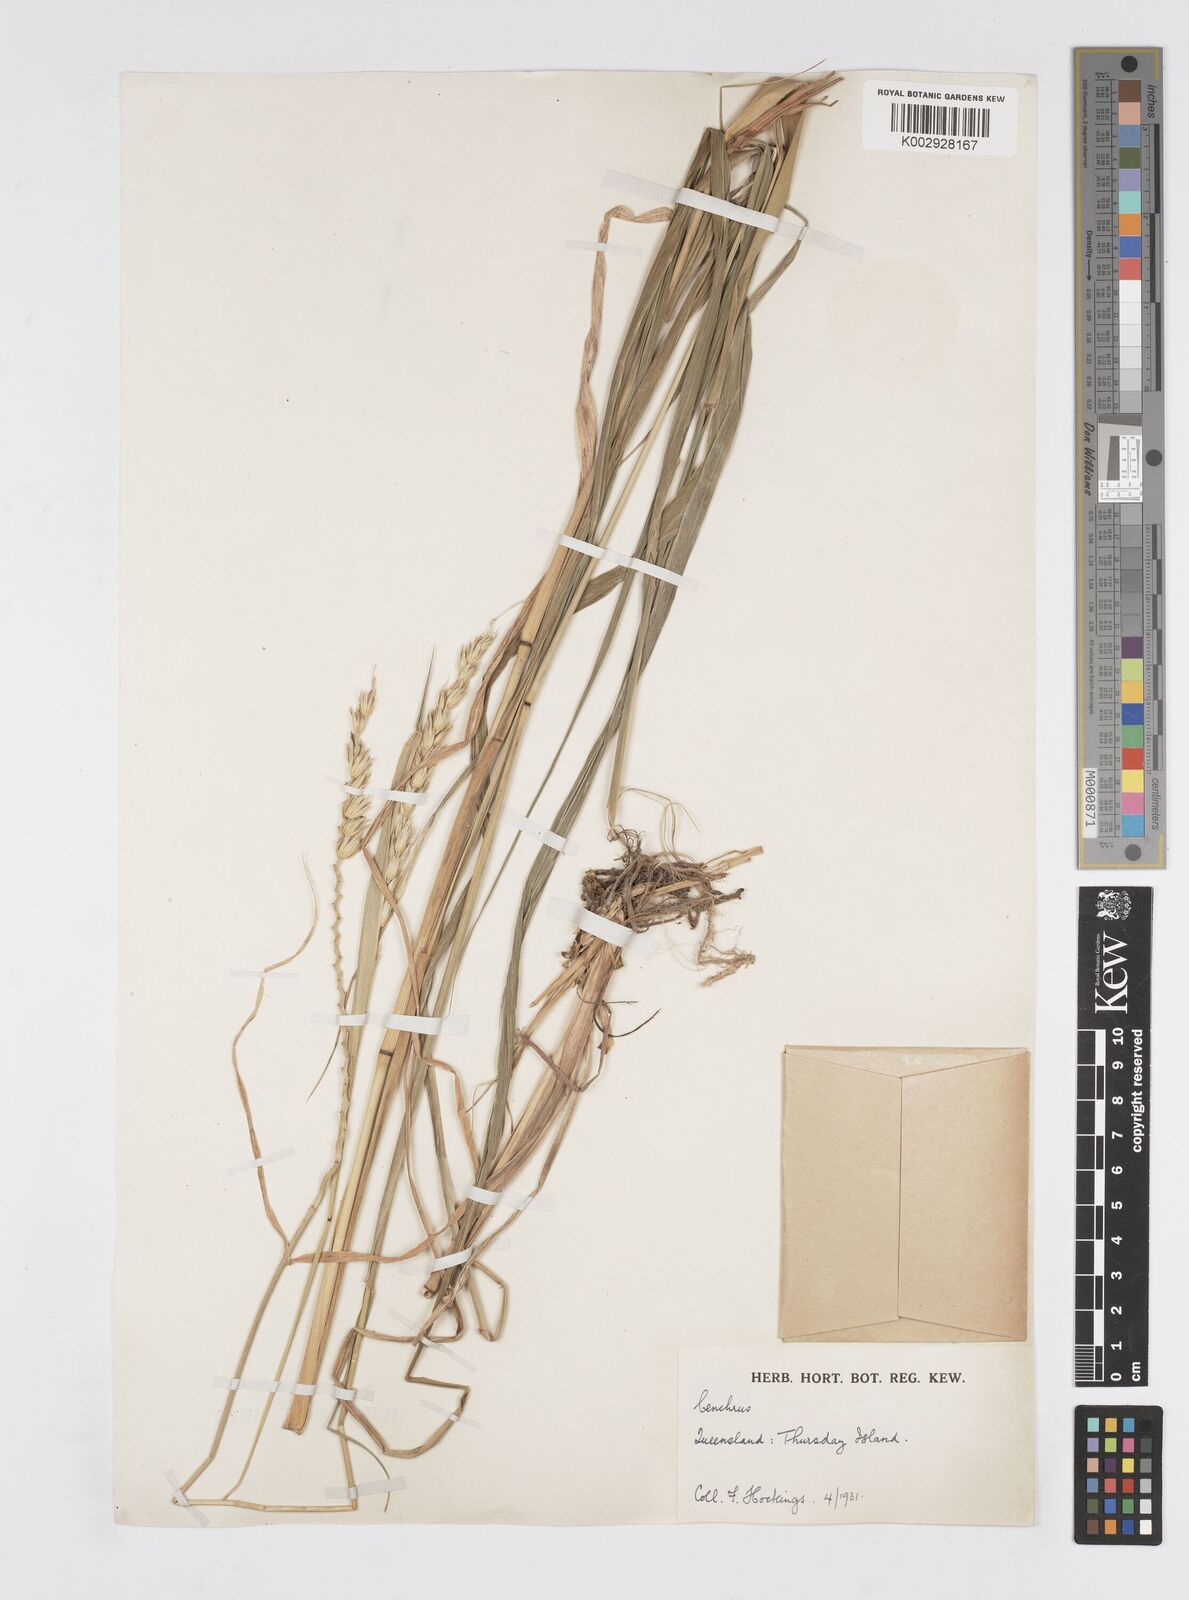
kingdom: Plantae
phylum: Tracheophyta
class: Liliopsida
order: Poales
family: Poaceae
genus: Cenchrus
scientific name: Cenchrus elymoides
